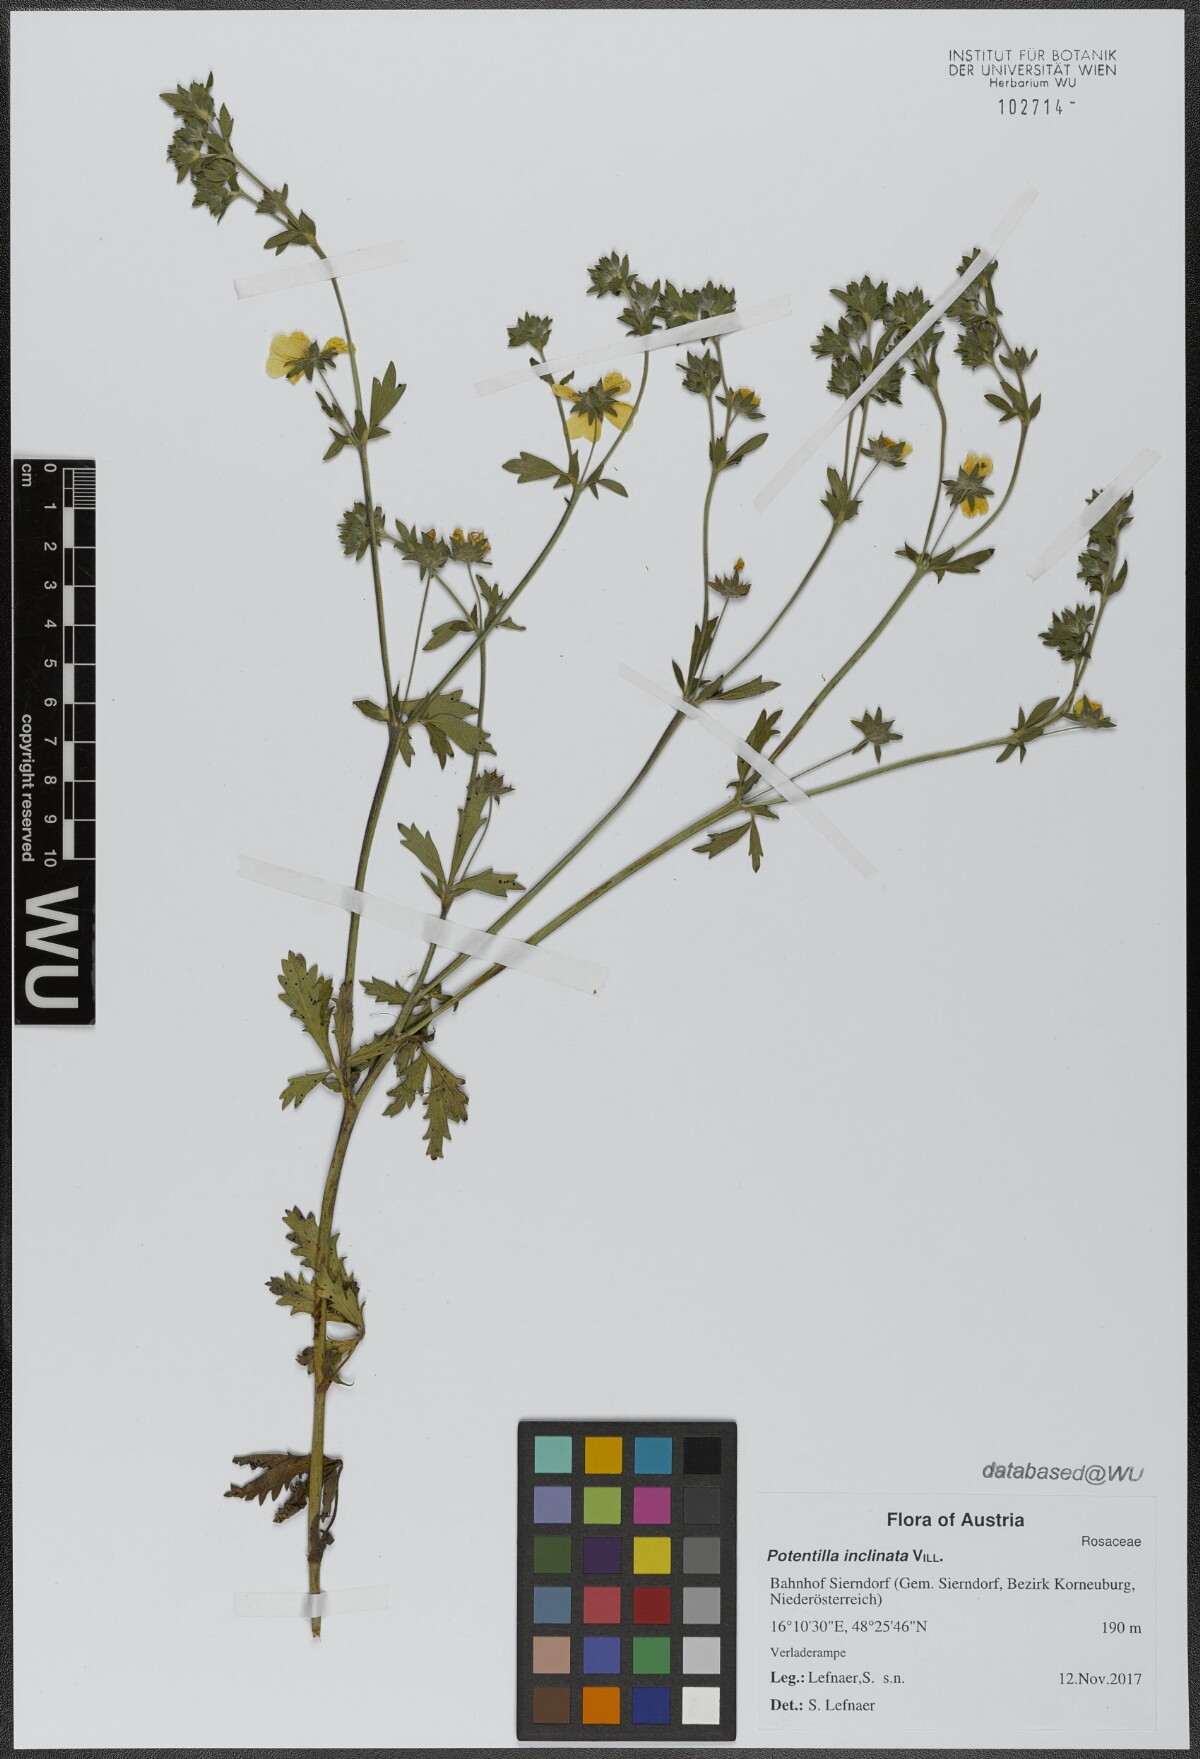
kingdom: Plantae
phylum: Tracheophyta
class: Magnoliopsida
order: Rosales
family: Rosaceae
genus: Potentilla
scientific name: Potentilla inclinata
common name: Grey cinquefoil
